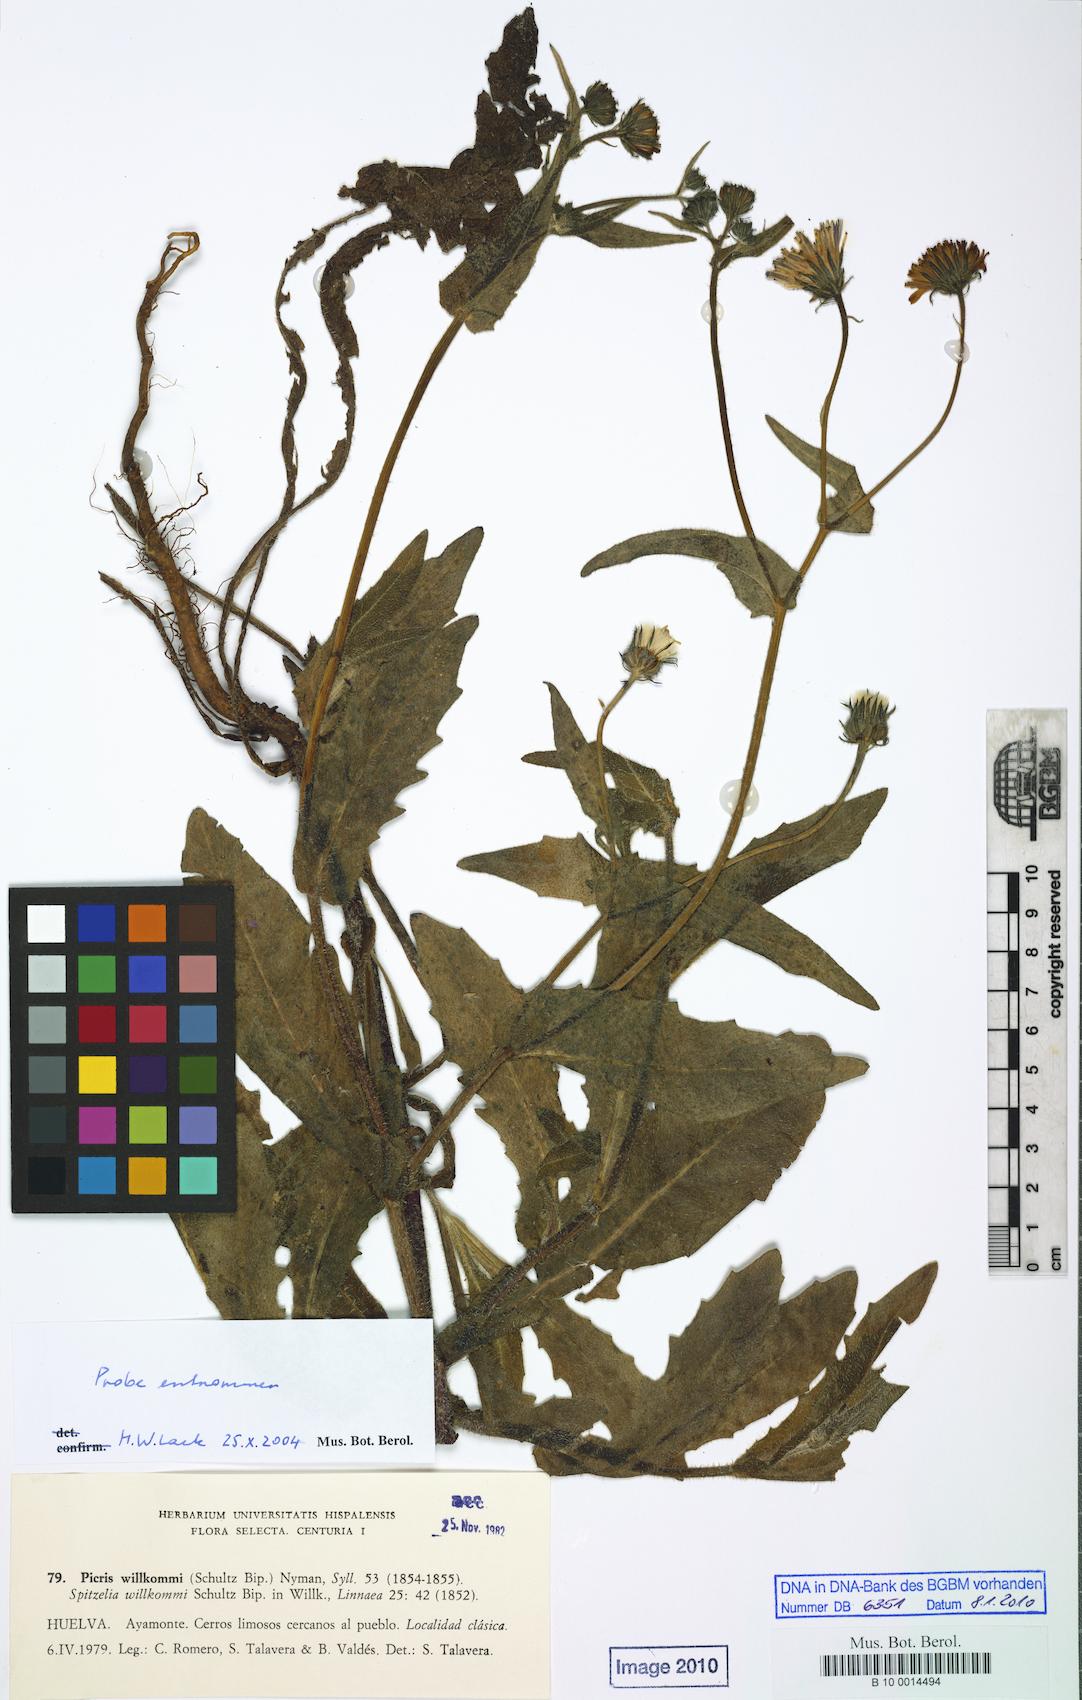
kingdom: Plantae
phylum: Tracheophyta
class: Magnoliopsida
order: Asterales
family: Asteraceae
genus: Picris
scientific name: Picris cupuligera
